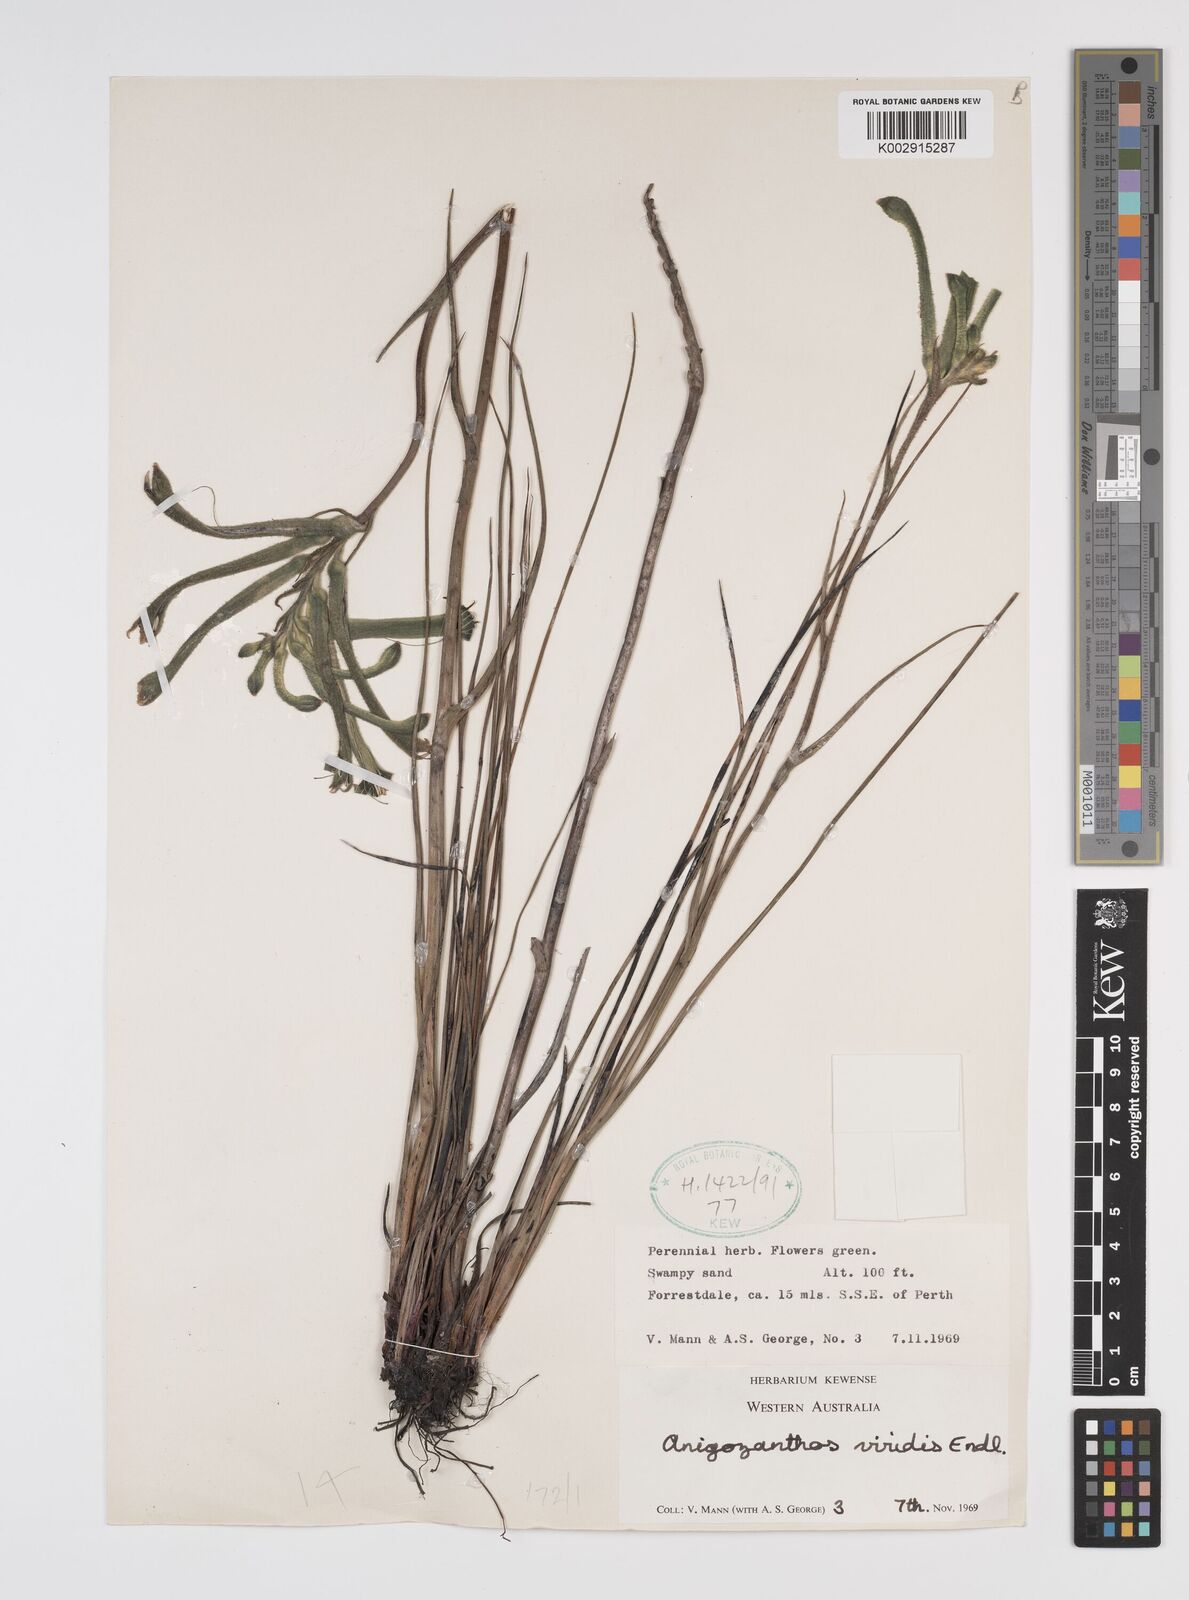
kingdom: Plantae
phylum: Tracheophyta
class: Liliopsida
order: Commelinales
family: Haemodoraceae
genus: Anigozanthos
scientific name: Anigozanthos viridis
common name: Green kangaroo-paw
